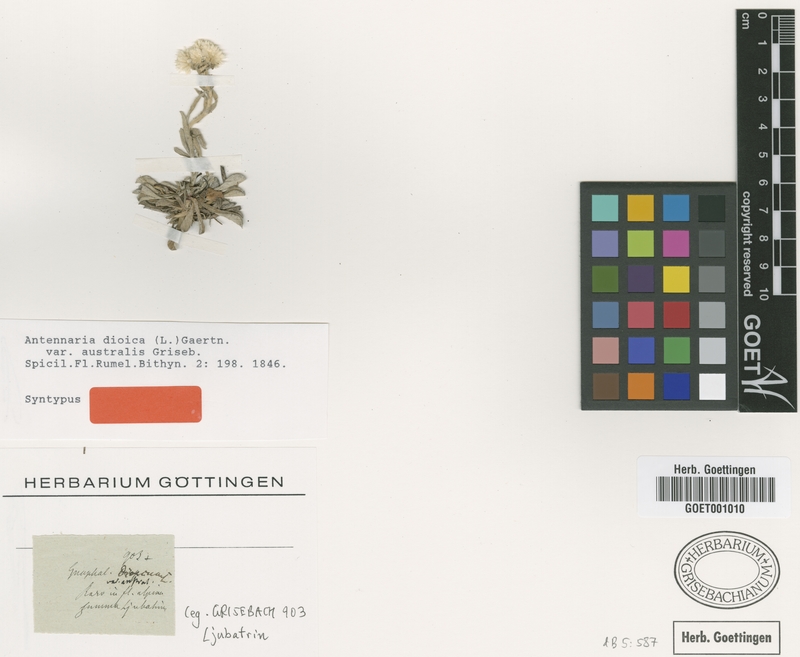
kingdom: Plantae
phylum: Tracheophyta
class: Magnoliopsida
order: Asterales
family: Asteraceae
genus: Antennaria
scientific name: Antennaria dioica
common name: Mountain everlasting
